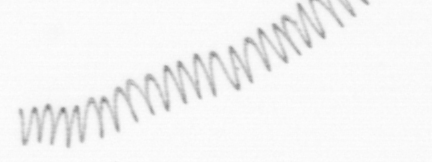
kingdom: Chromista
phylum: Ochrophyta
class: Bacillariophyceae
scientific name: Bacillariophyceae
